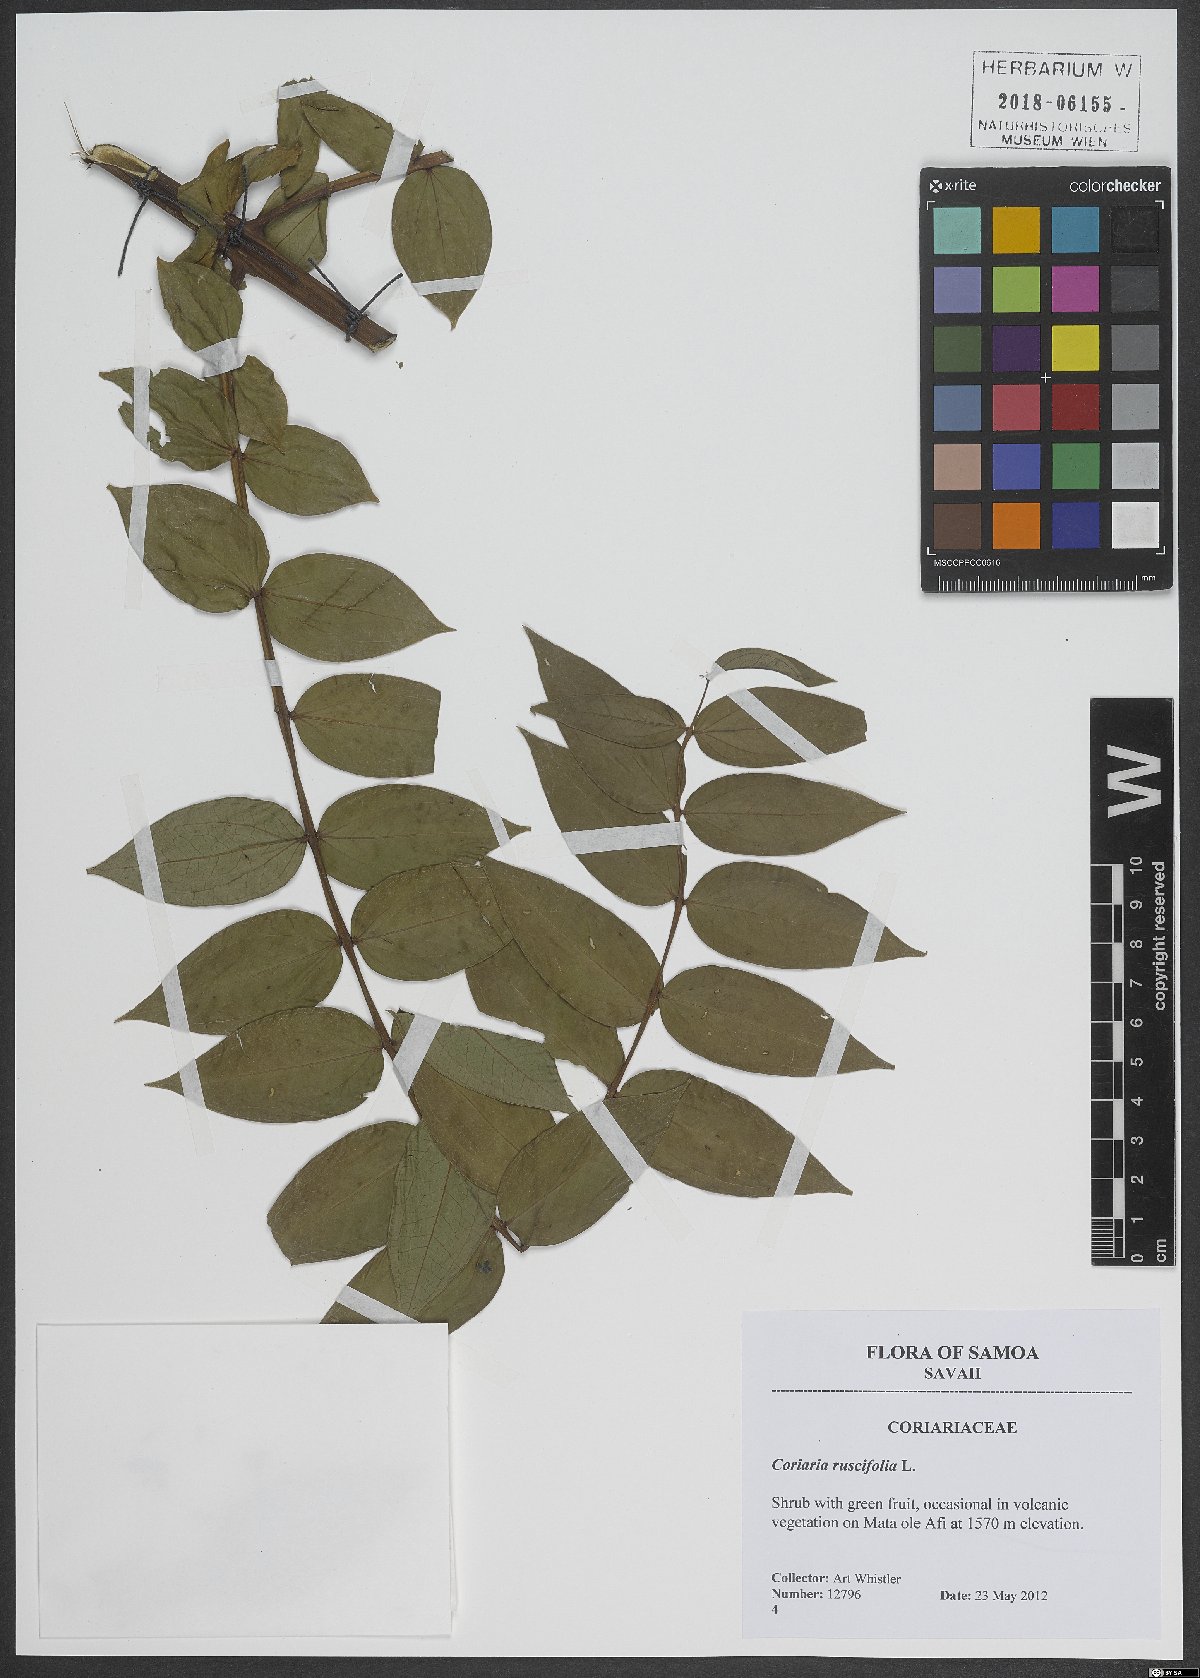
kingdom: Plantae
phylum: Tracheophyta
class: Magnoliopsida
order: Cucurbitales
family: Coriariaceae
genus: Coriaria
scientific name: Coriaria ruscifolia
